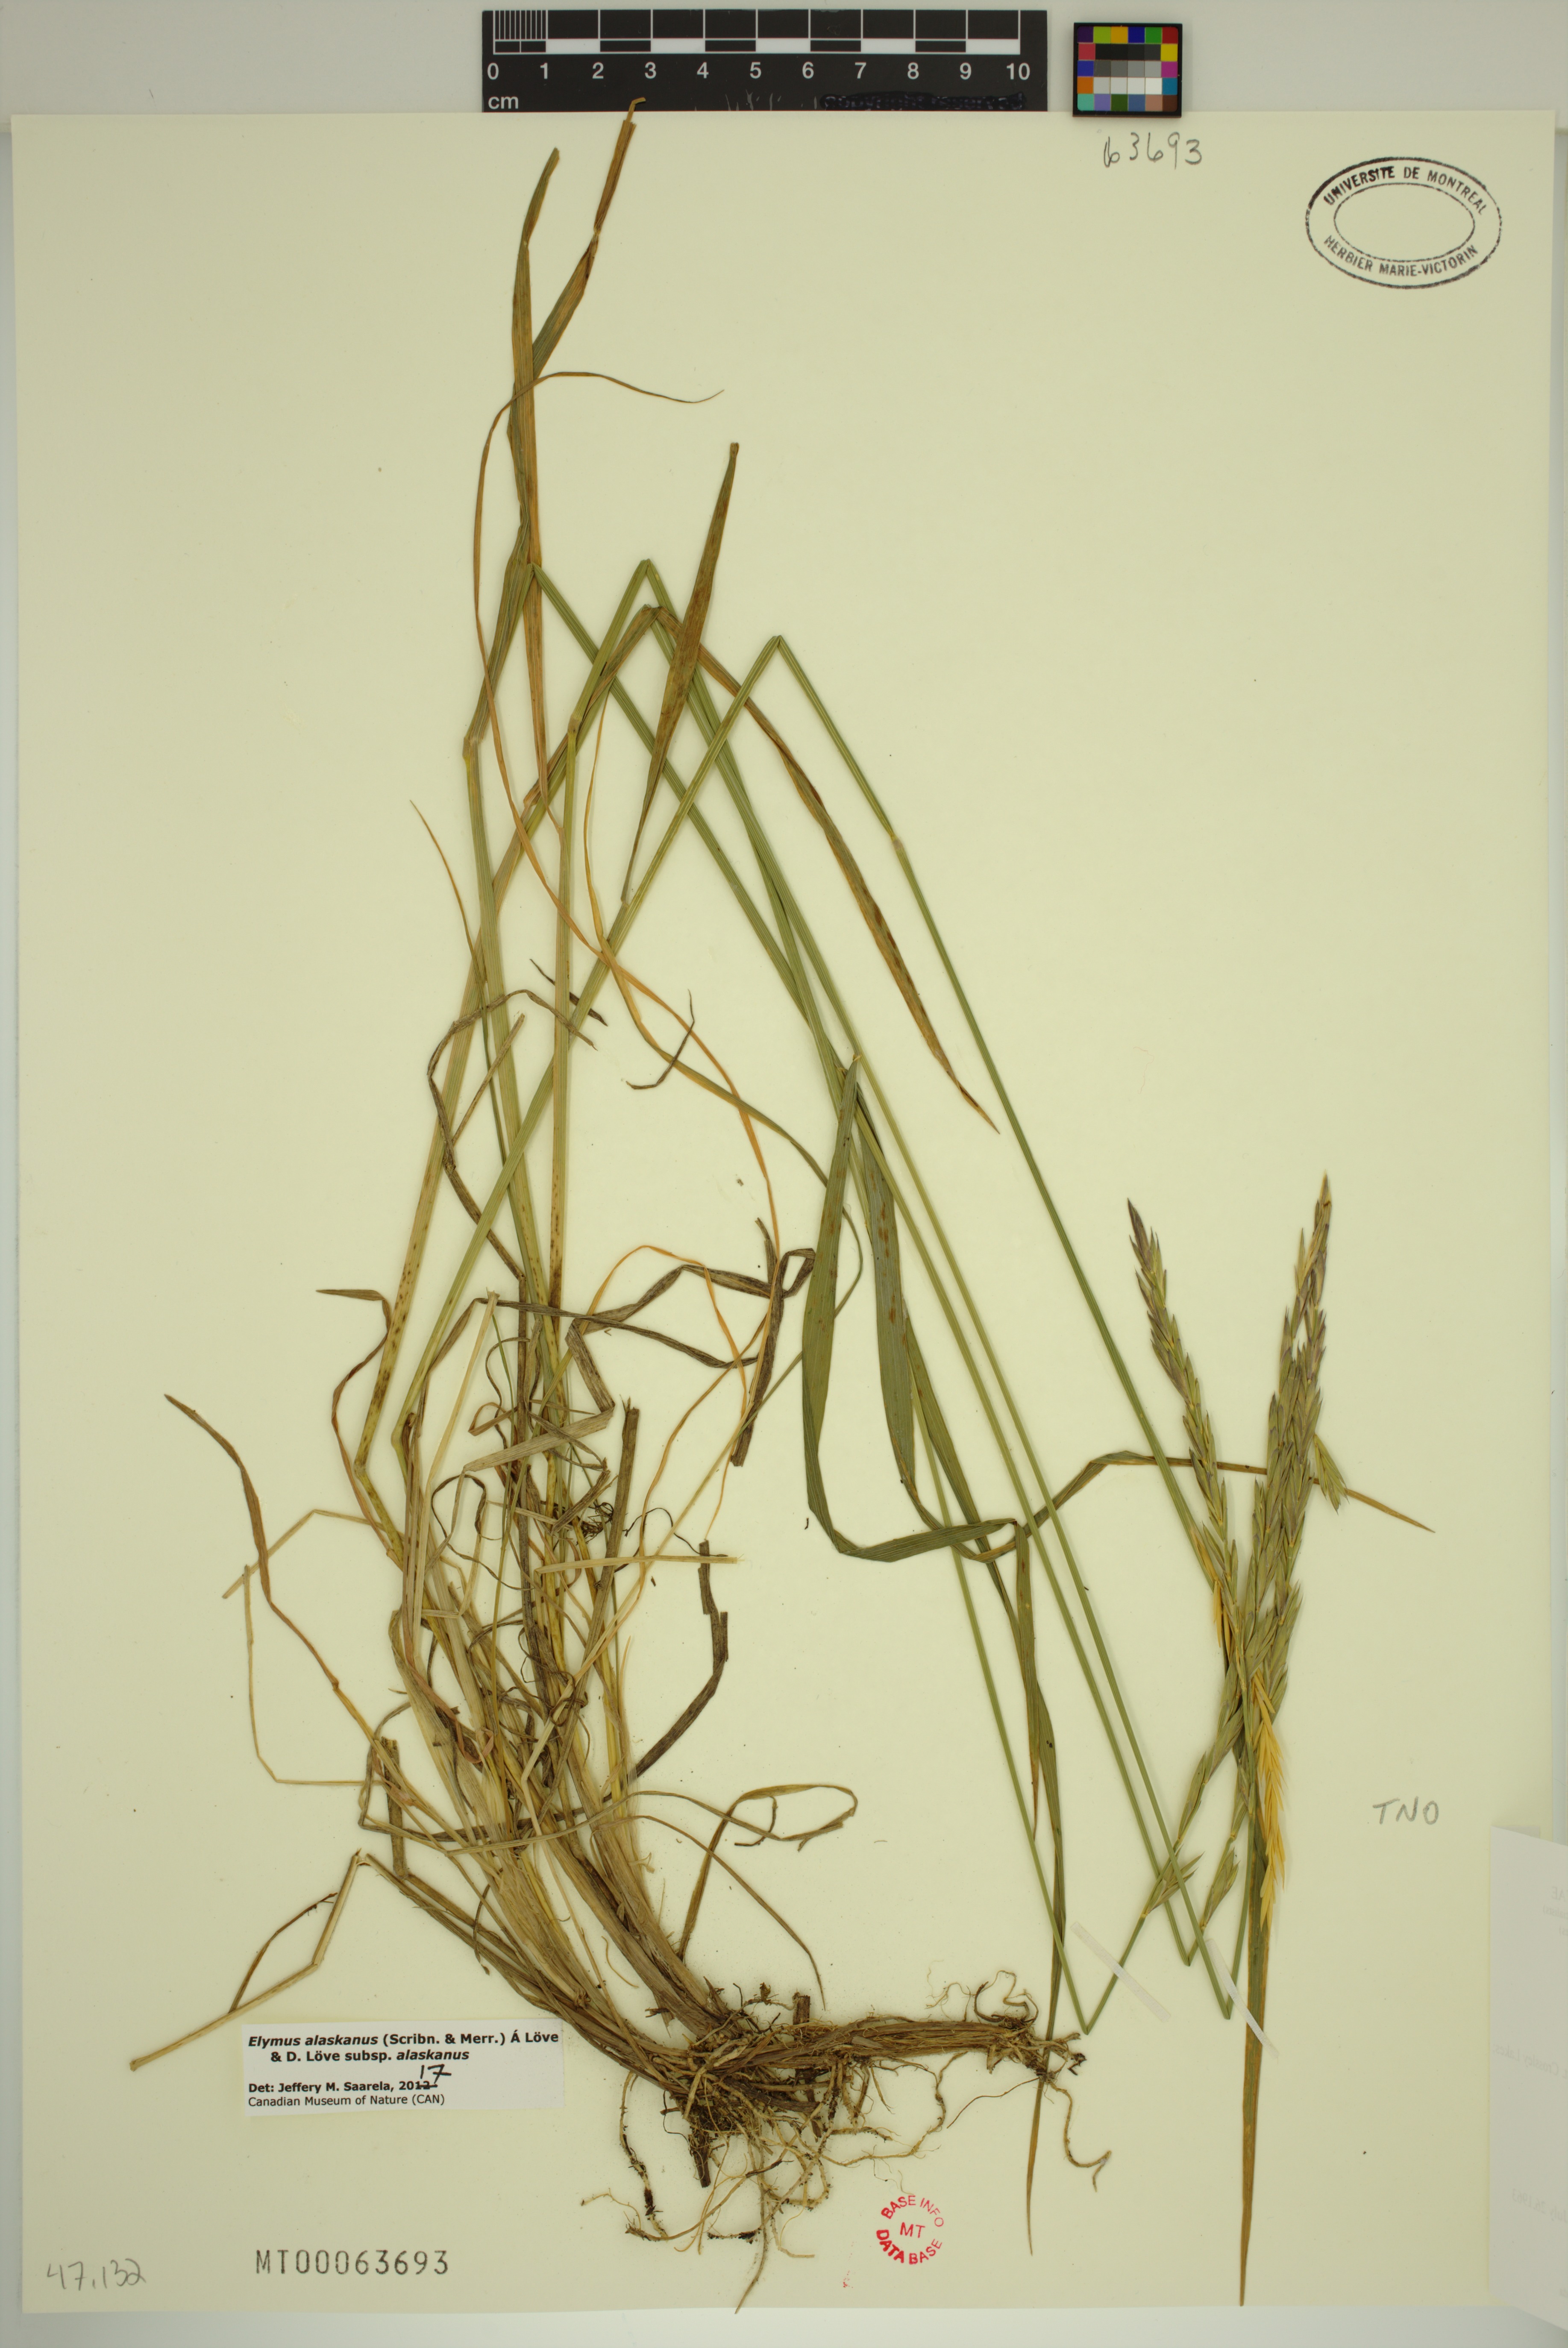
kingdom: Plantae
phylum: Tracheophyta
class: Liliopsida
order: Poales
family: Poaceae
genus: Elymus
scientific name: Elymus alaskanus
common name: Alaska wheatgrass
